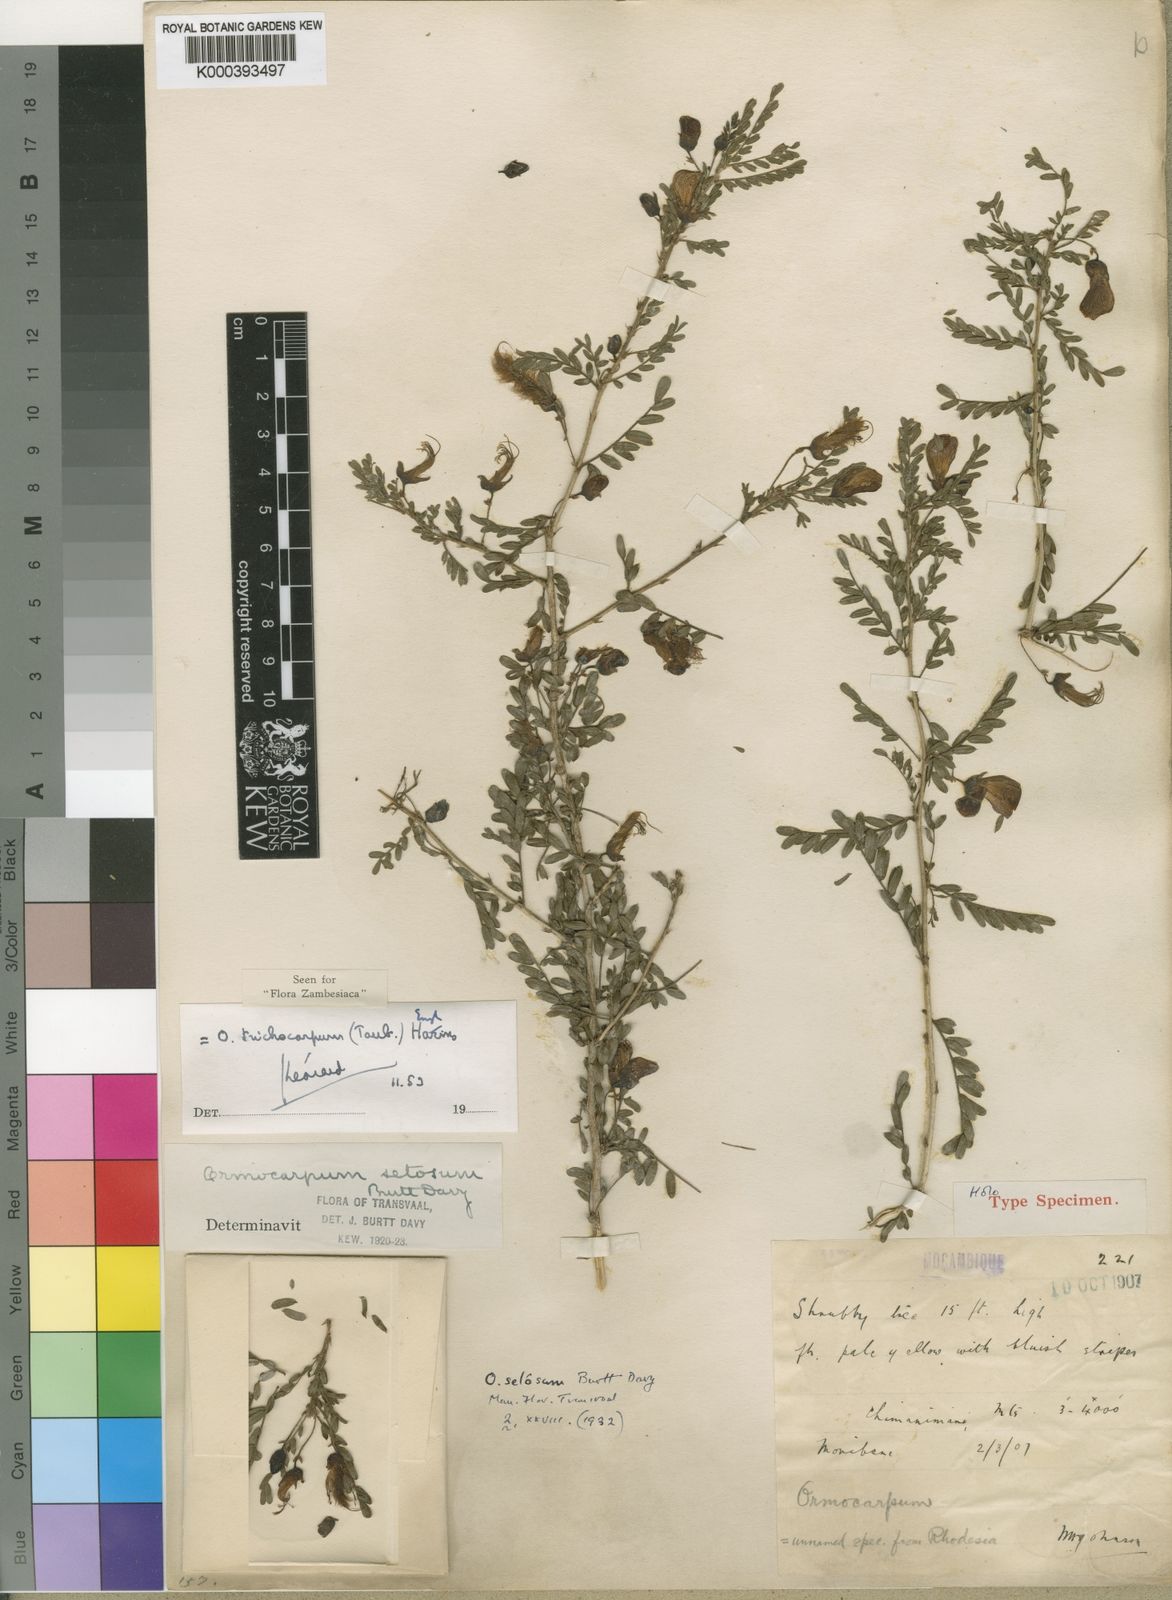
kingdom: Plantae
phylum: Tracheophyta
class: Magnoliopsida
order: Fabales
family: Fabaceae
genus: Ormocarpum
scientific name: Ormocarpum
